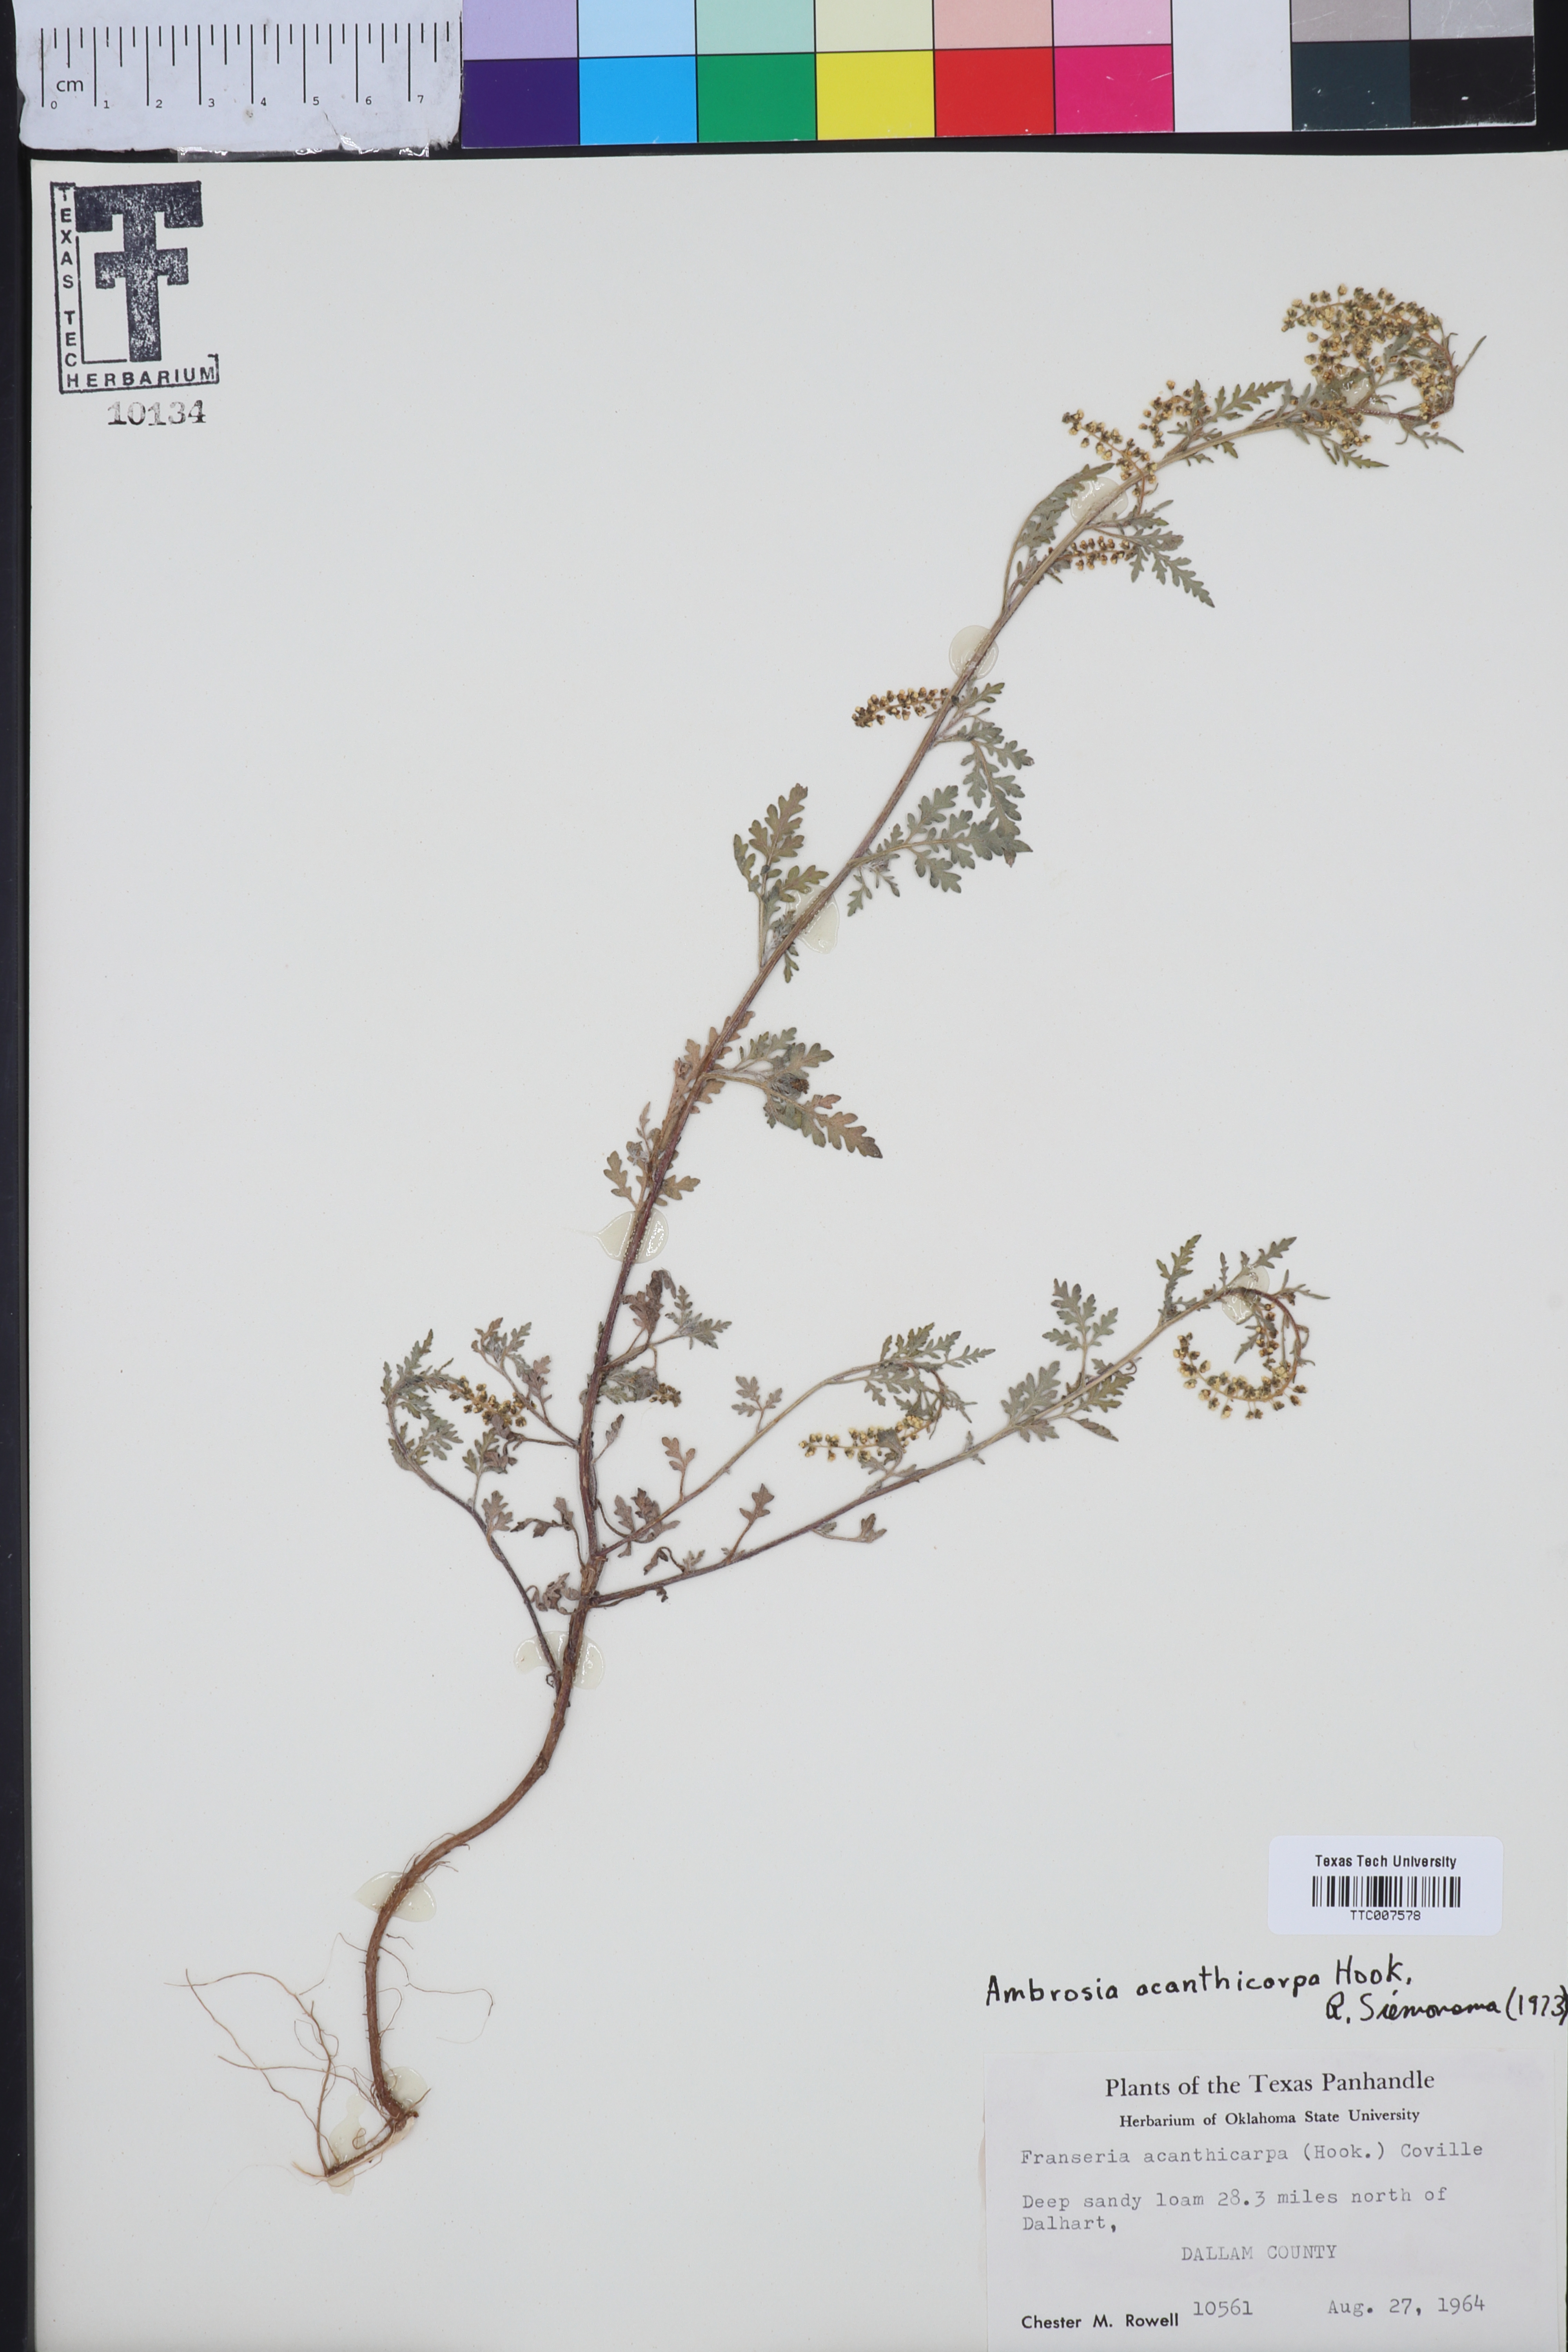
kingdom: Plantae
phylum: Tracheophyta
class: Magnoliopsida
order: Asterales
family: Asteraceae
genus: Ambrosia
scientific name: Ambrosia acanthicarpa
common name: Hooker's bur ragweed
